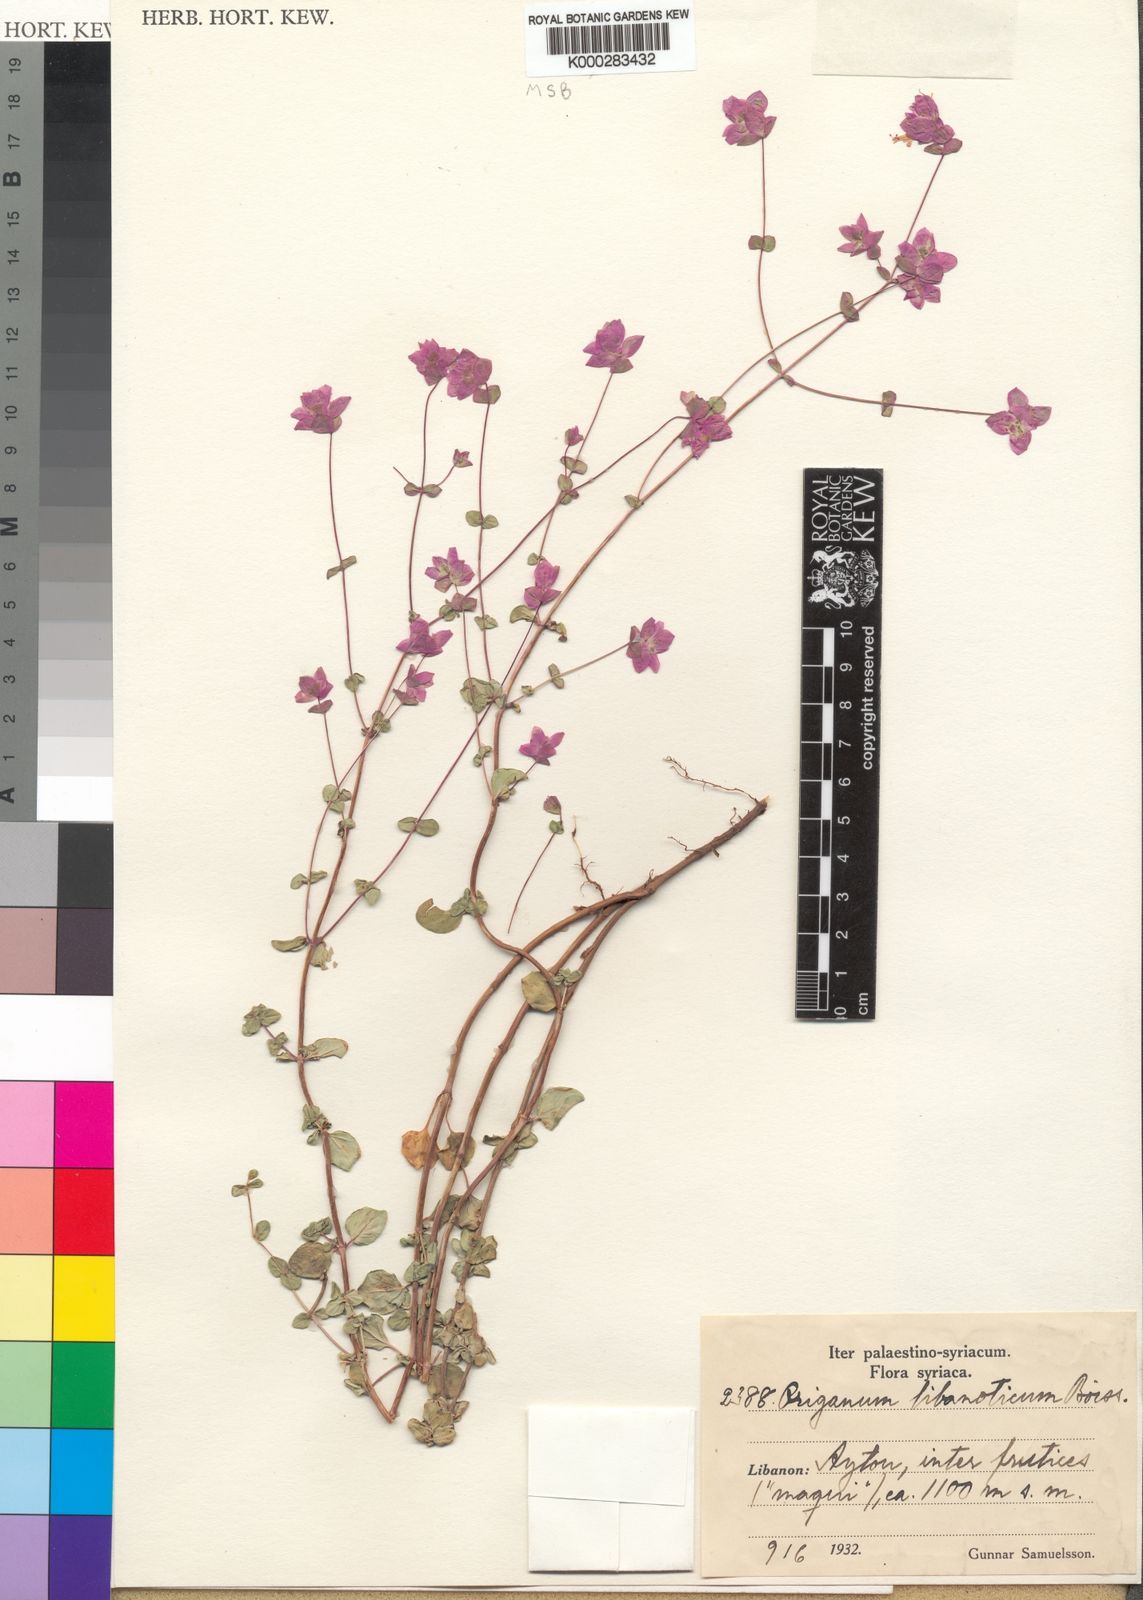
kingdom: Plantae
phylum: Tracheophyta
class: Magnoliopsida
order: Lamiales
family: Lamiaceae
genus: Origanum
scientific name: Origanum libanoticum
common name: Lebanon oregano
